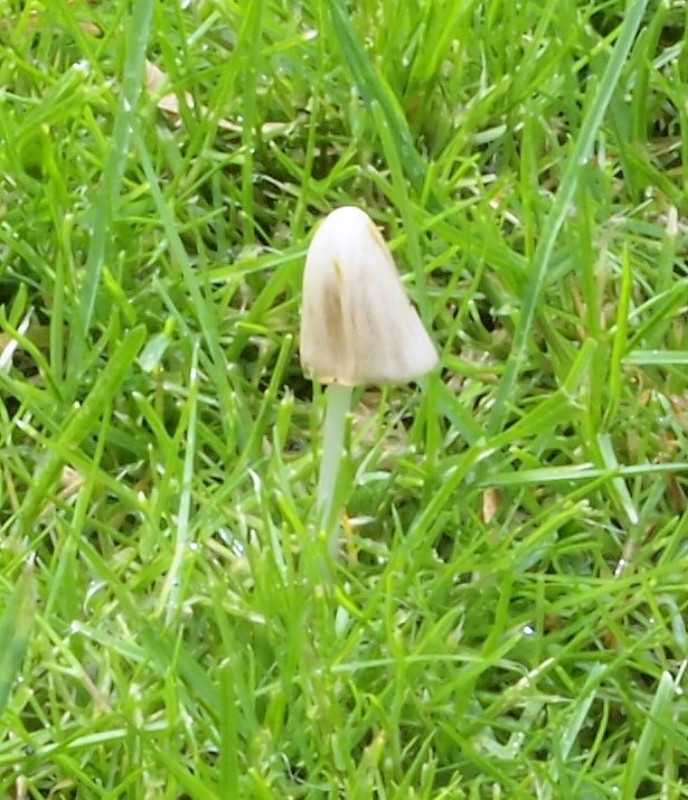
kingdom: Fungi
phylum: Basidiomycota
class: Agaricomycetes
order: Agaricales
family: Bolbitiaceae
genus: Conocybe
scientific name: Conocybe apala
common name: mælkehvid keglehat
